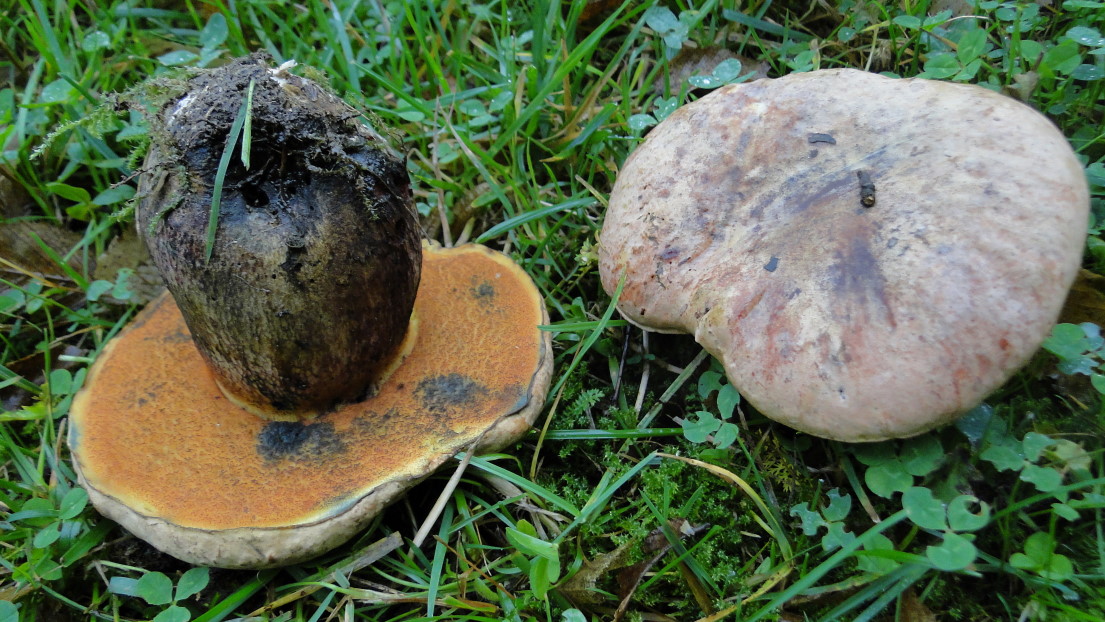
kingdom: Fungi
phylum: Basidiomycota
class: Agaricomycetes
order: Boletales
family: Boletaceae
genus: Suillellus
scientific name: Suillellus luridus
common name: netstokket indigorørhat
